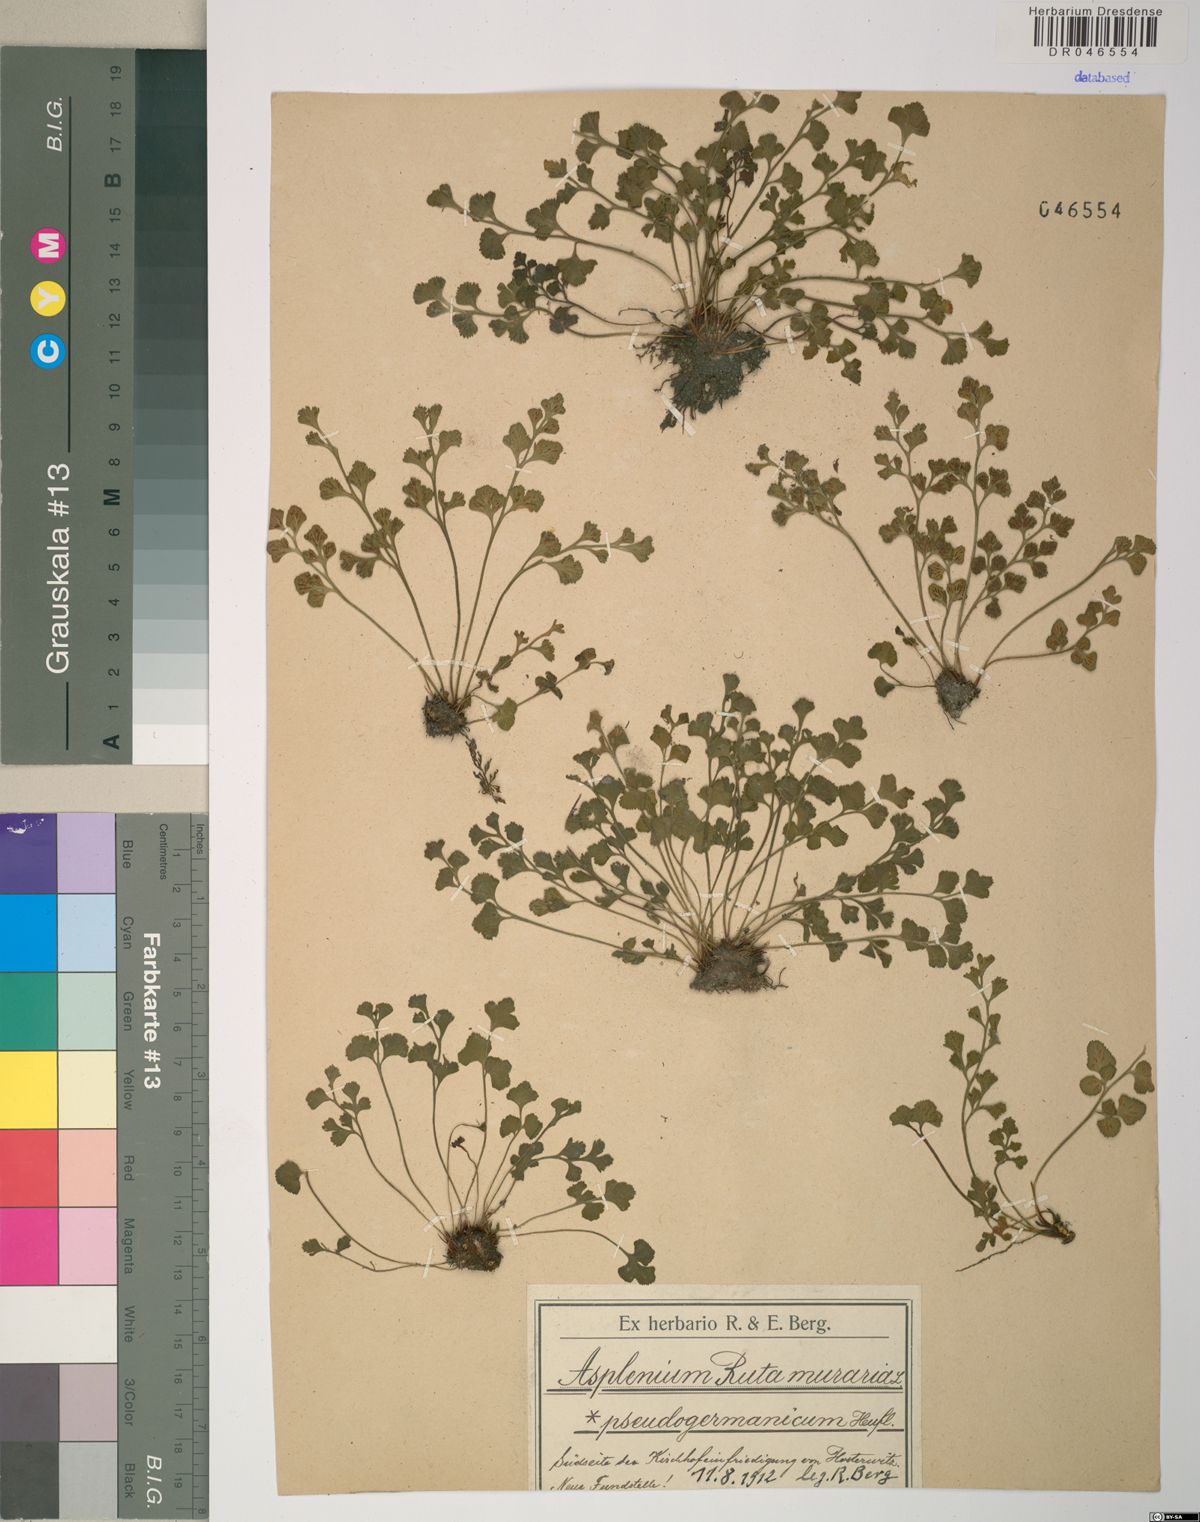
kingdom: Plantae
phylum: Tracheophyta
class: Polypodiopsida
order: Polypodiales
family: Aspleniaceae
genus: Asplenium
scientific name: Asplenium ruta-muraria
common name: Wall-rue
